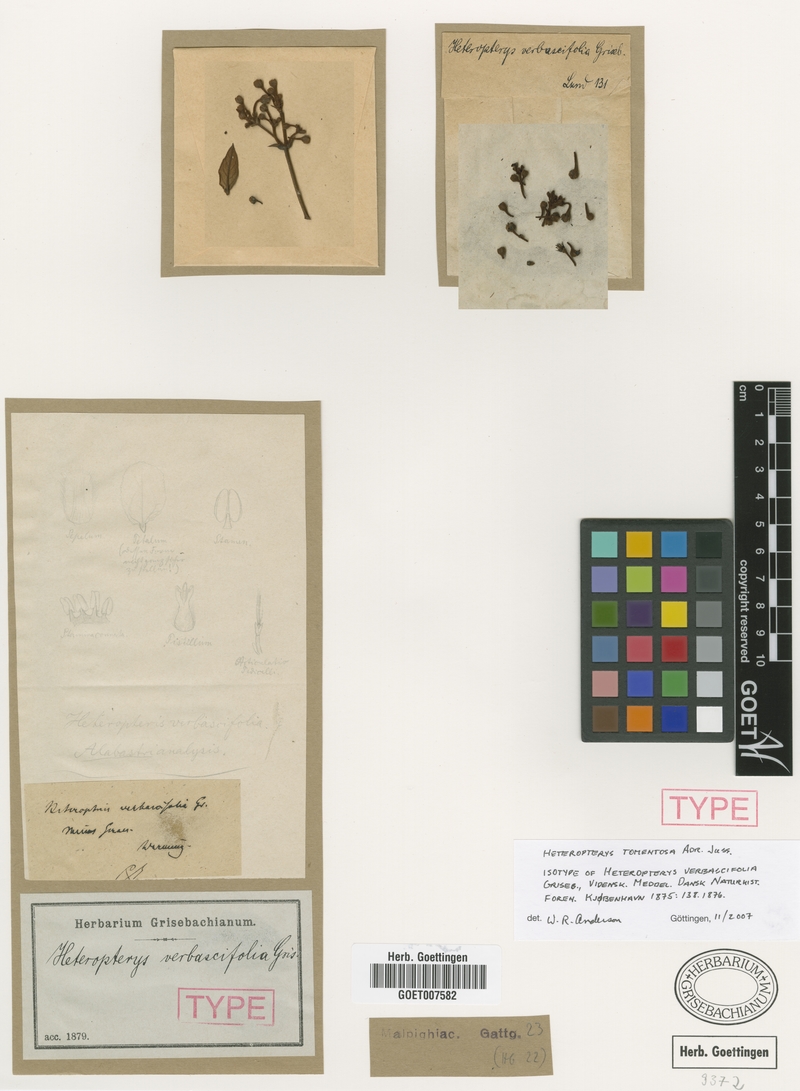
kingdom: Plantae
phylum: Tracheophyta
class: Magnoliopsida
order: Malpighiales
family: Malpighiaceae
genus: Heteropterys
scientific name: Heteropterys tomentosa
